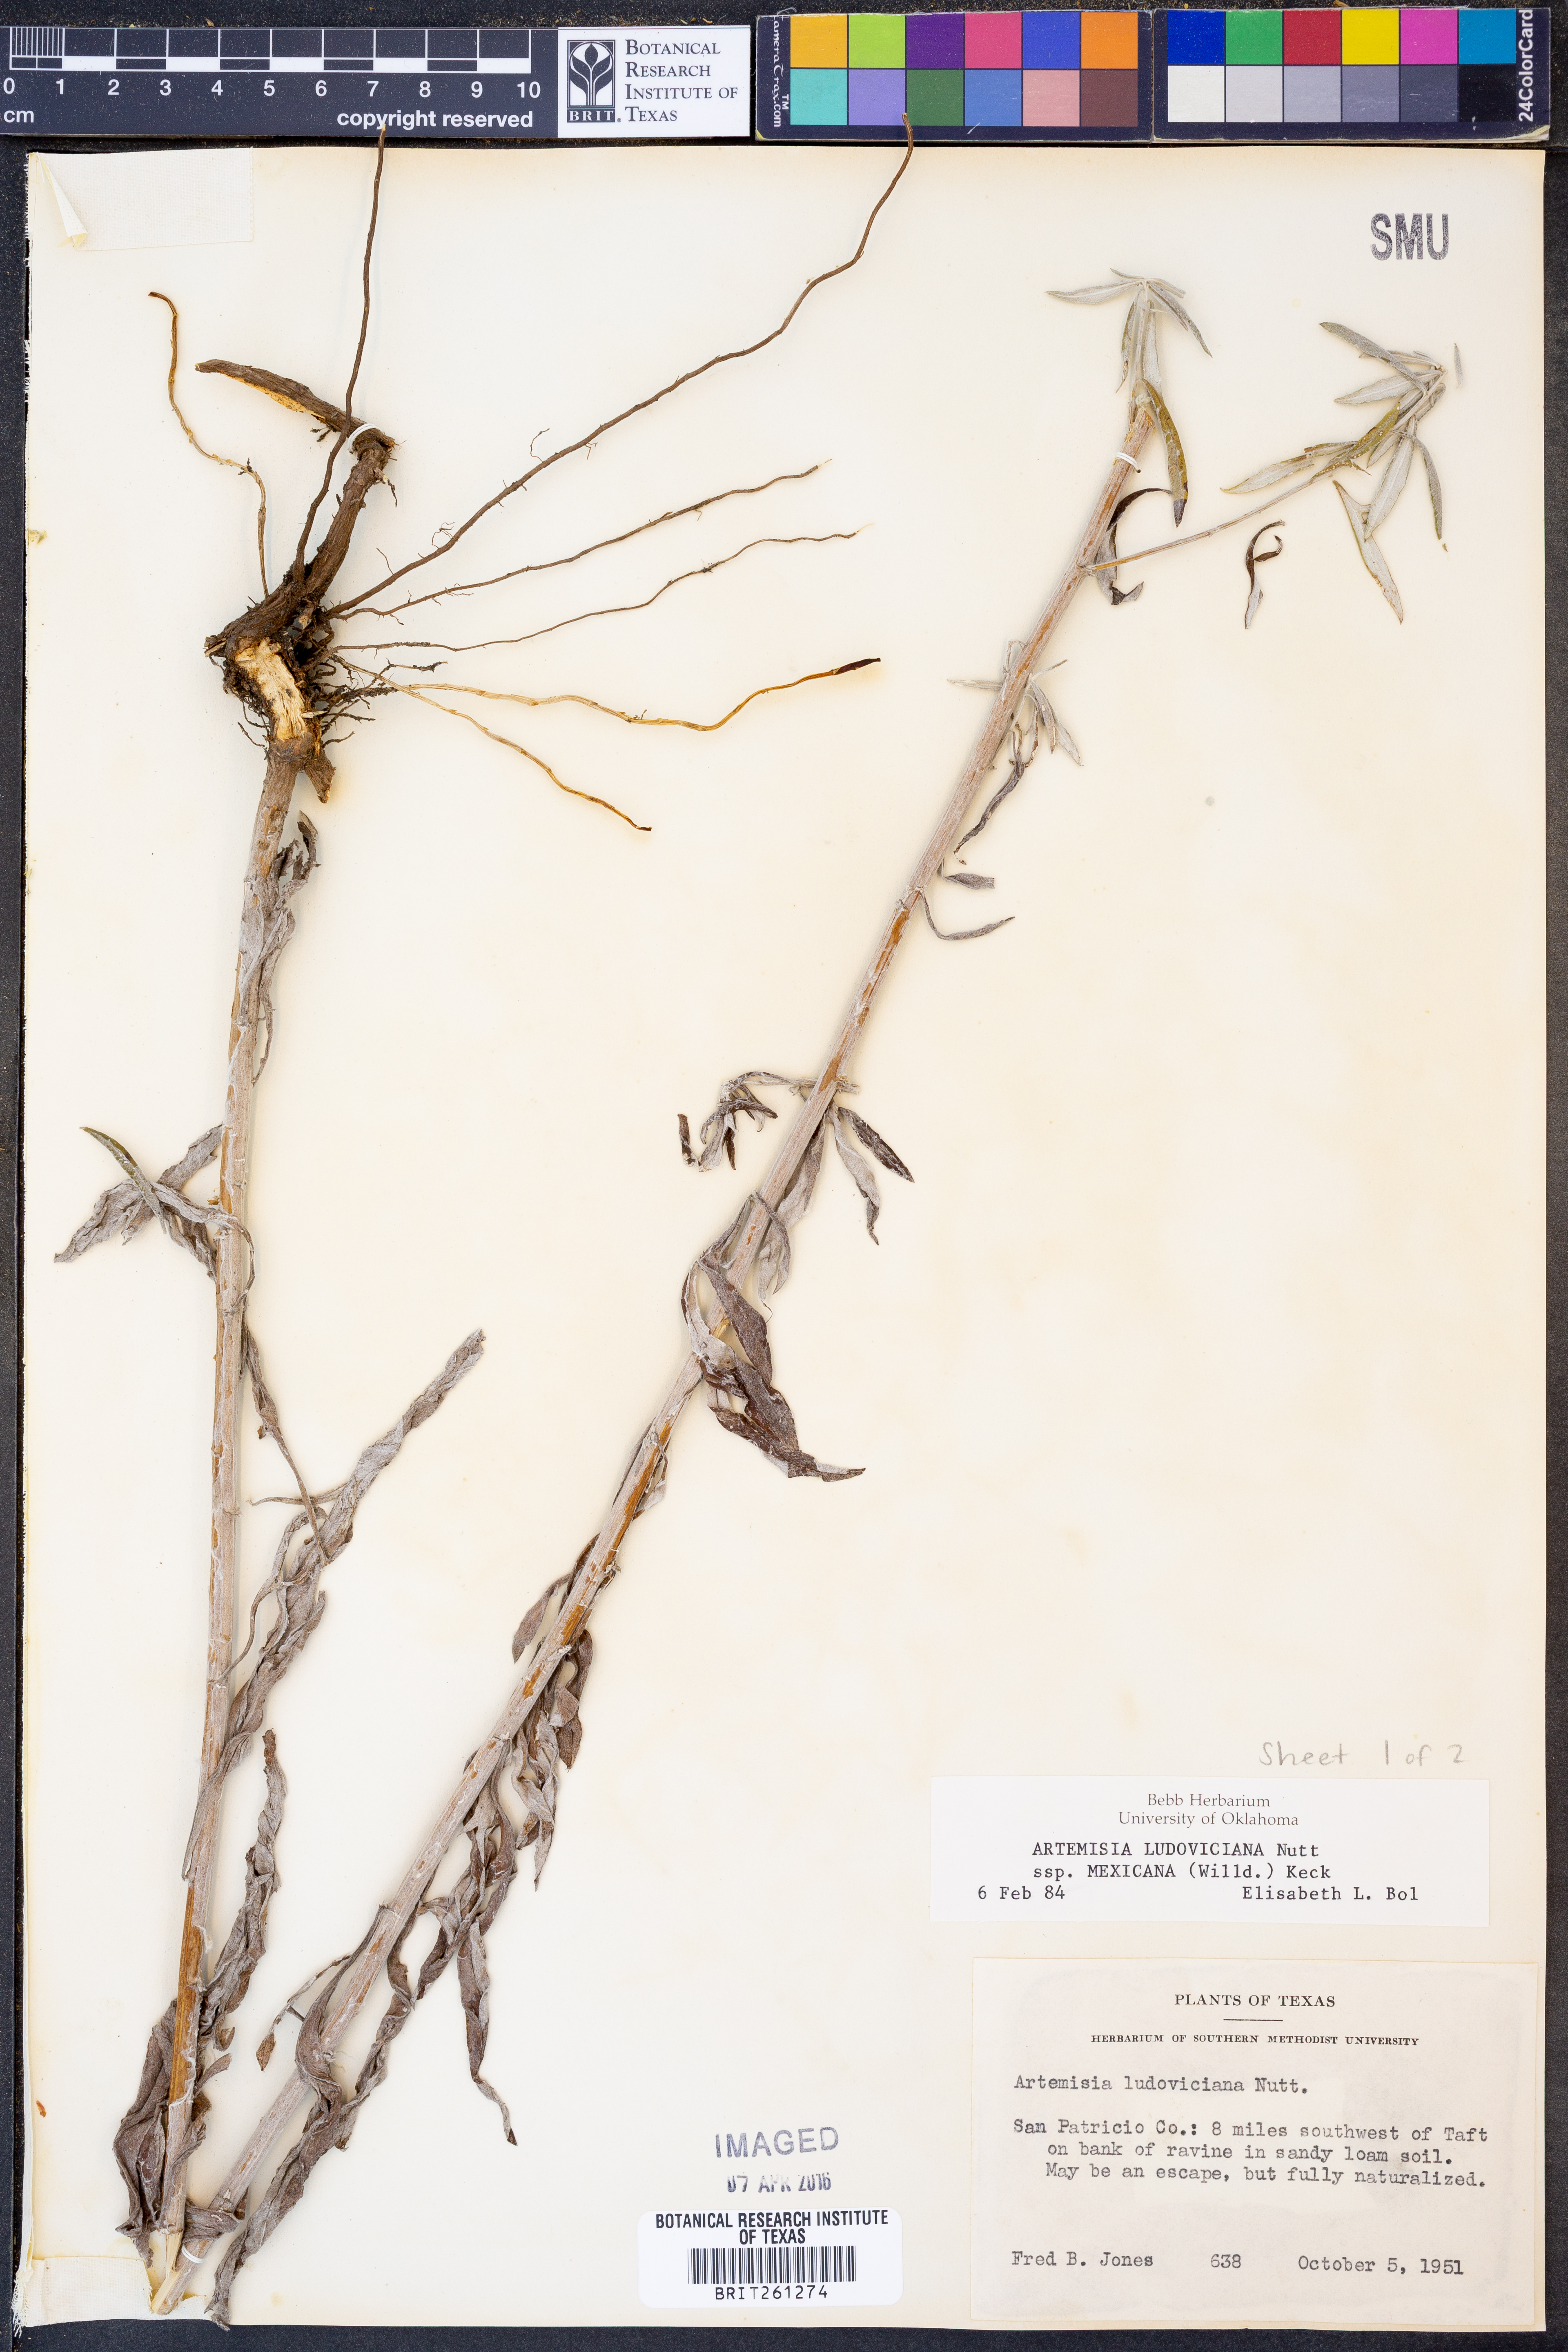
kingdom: Plantae
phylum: Tracheophyta
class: Magnoliopsida
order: Asterales
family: Asteraceae
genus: Artemisia
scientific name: Artemisia ludoviciana
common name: Western mugwort
